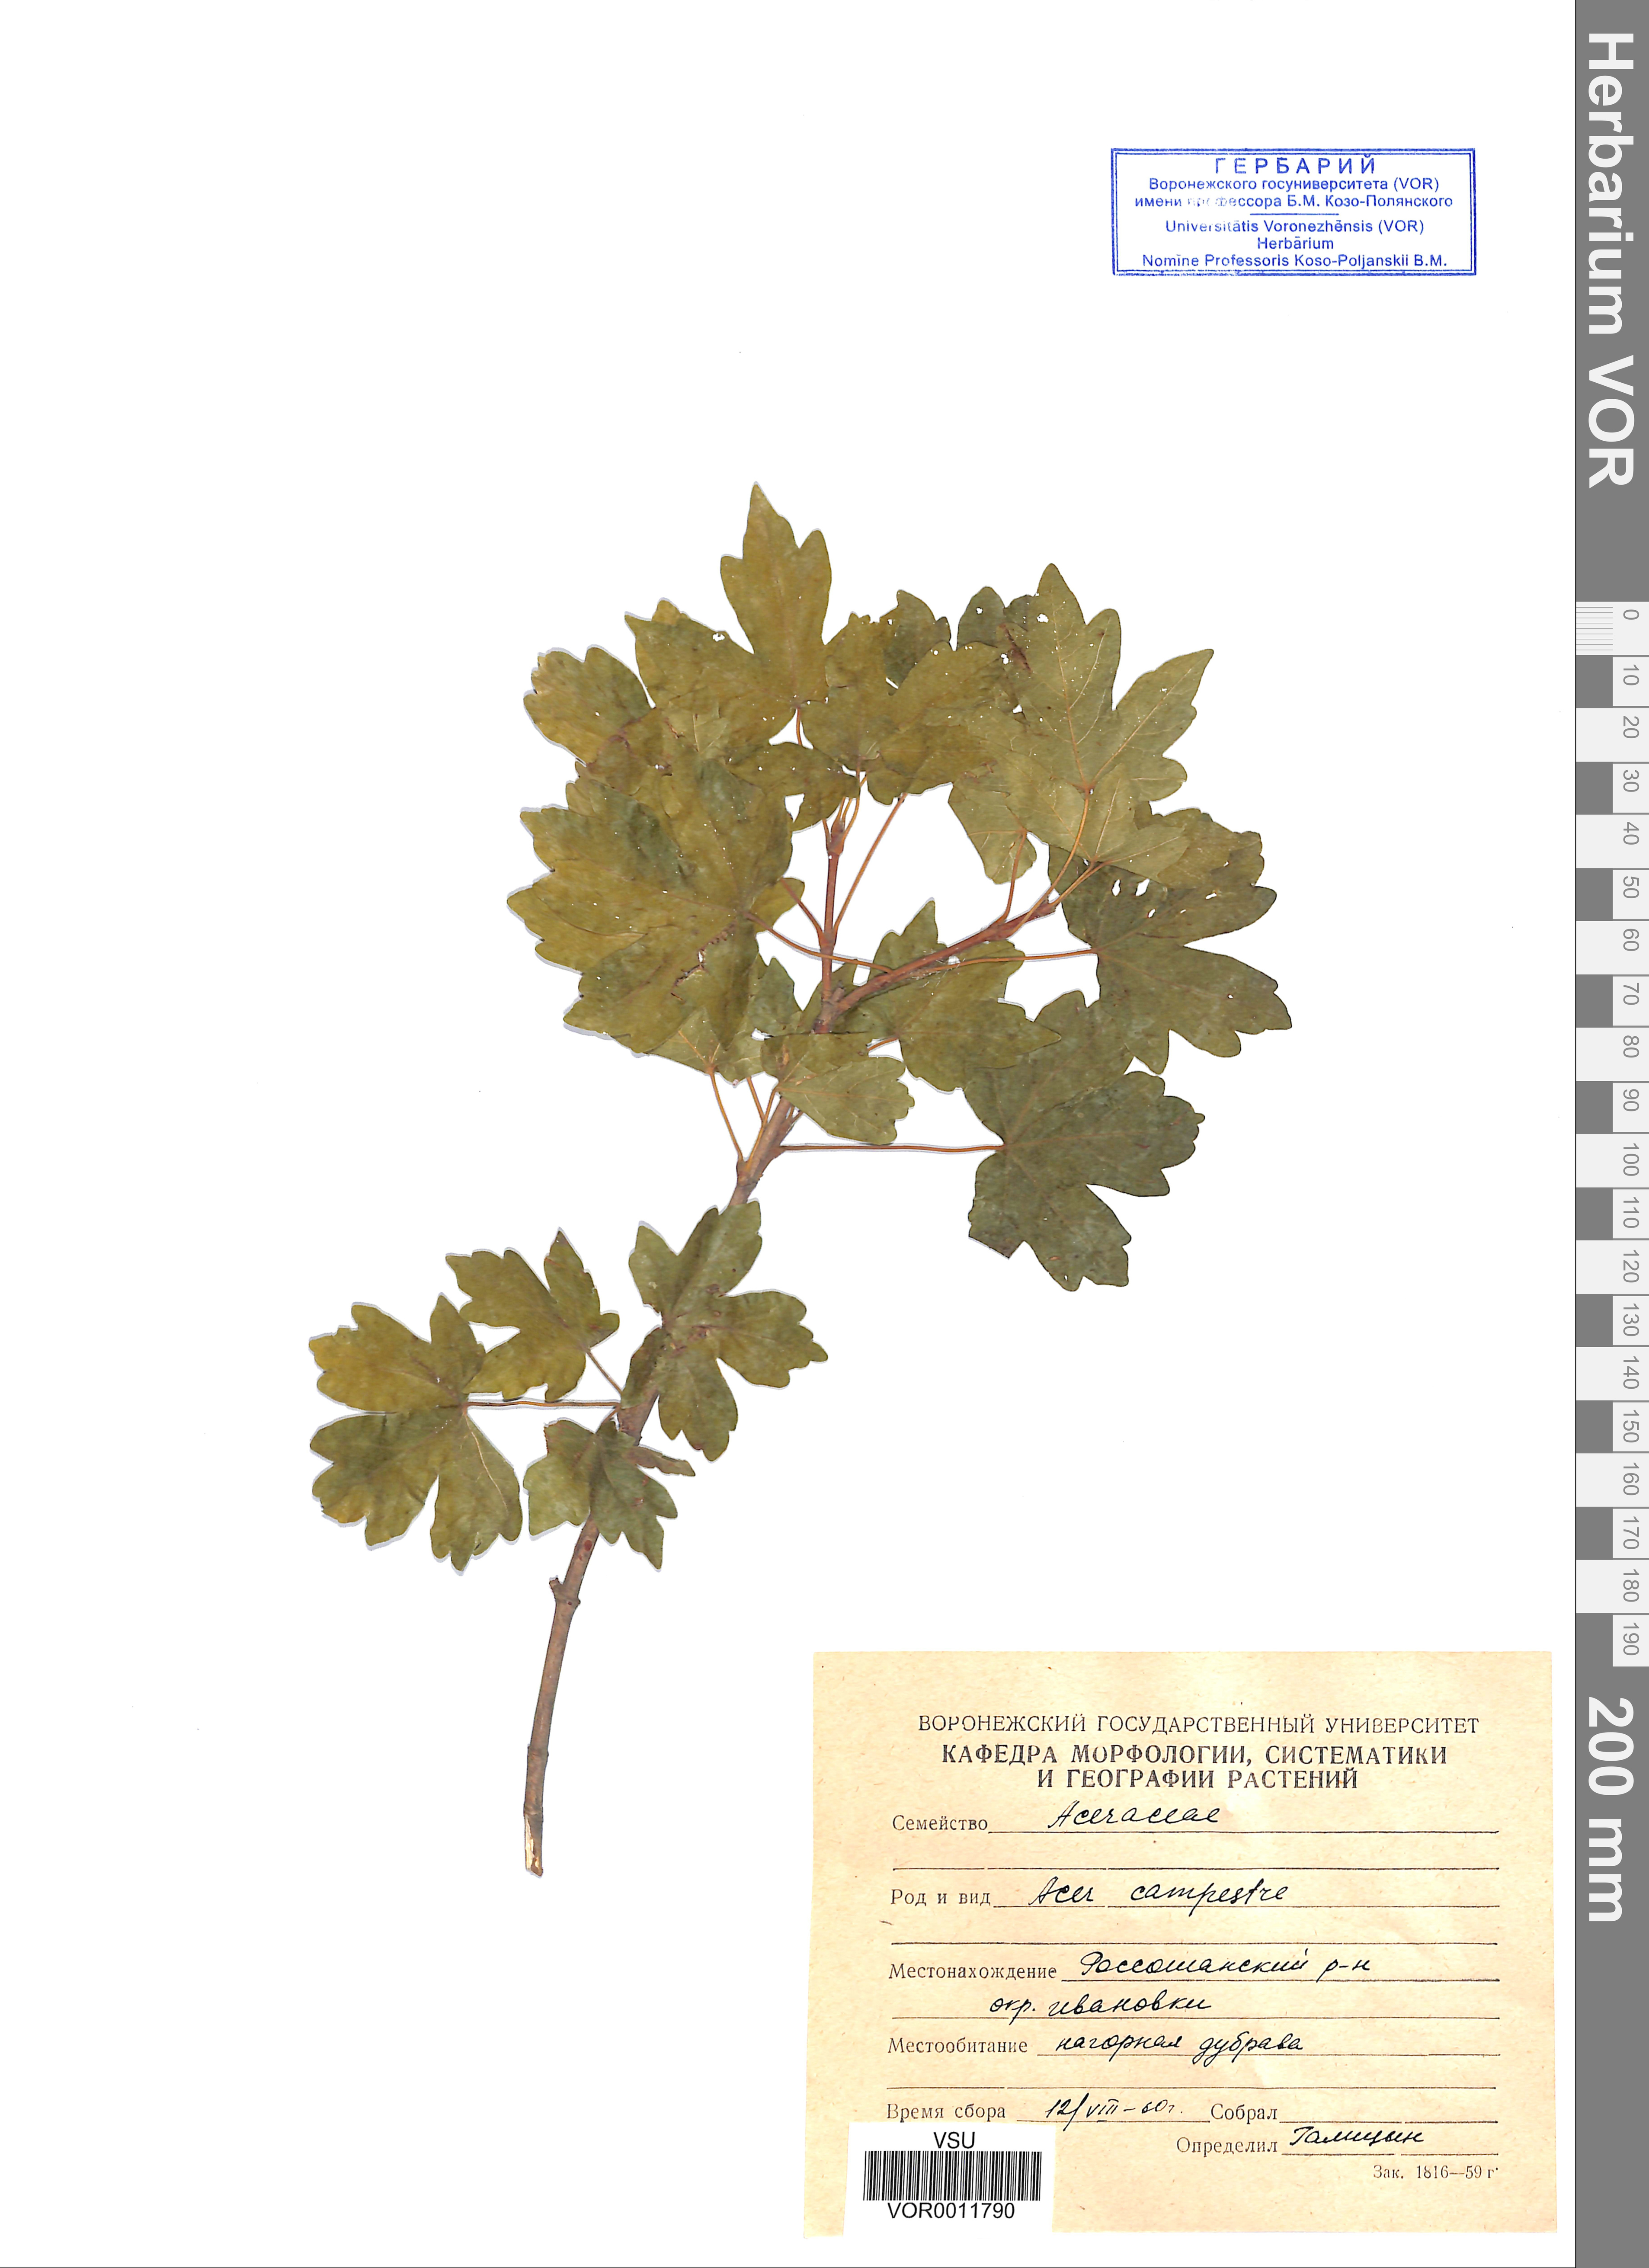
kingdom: Plantae
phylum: Tracheophyta
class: Magnoliopsida
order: Sapindales
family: Sapindaceae
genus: Acer
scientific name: Acer campestre
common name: Field maple
